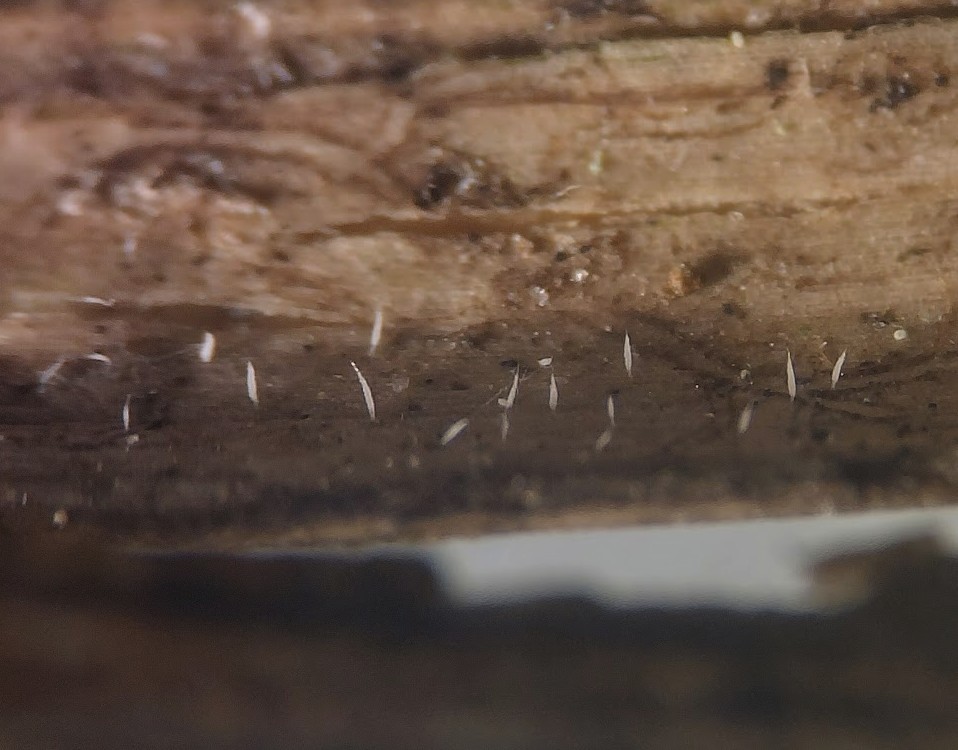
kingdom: Fungi
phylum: Basidiomycota
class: Agaricomycetes
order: Gomphales
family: Gomphaceae
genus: Ceratellopsis
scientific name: Ceratellopsis acuminata
